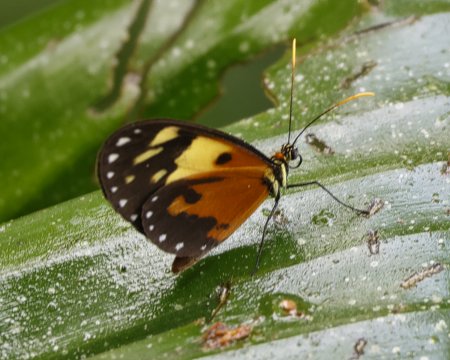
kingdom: Animalia
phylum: Arthropoda
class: Insecta
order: Lepidoptera
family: Nymphalidae
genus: Ithomia
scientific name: Ithomia iphianassa
